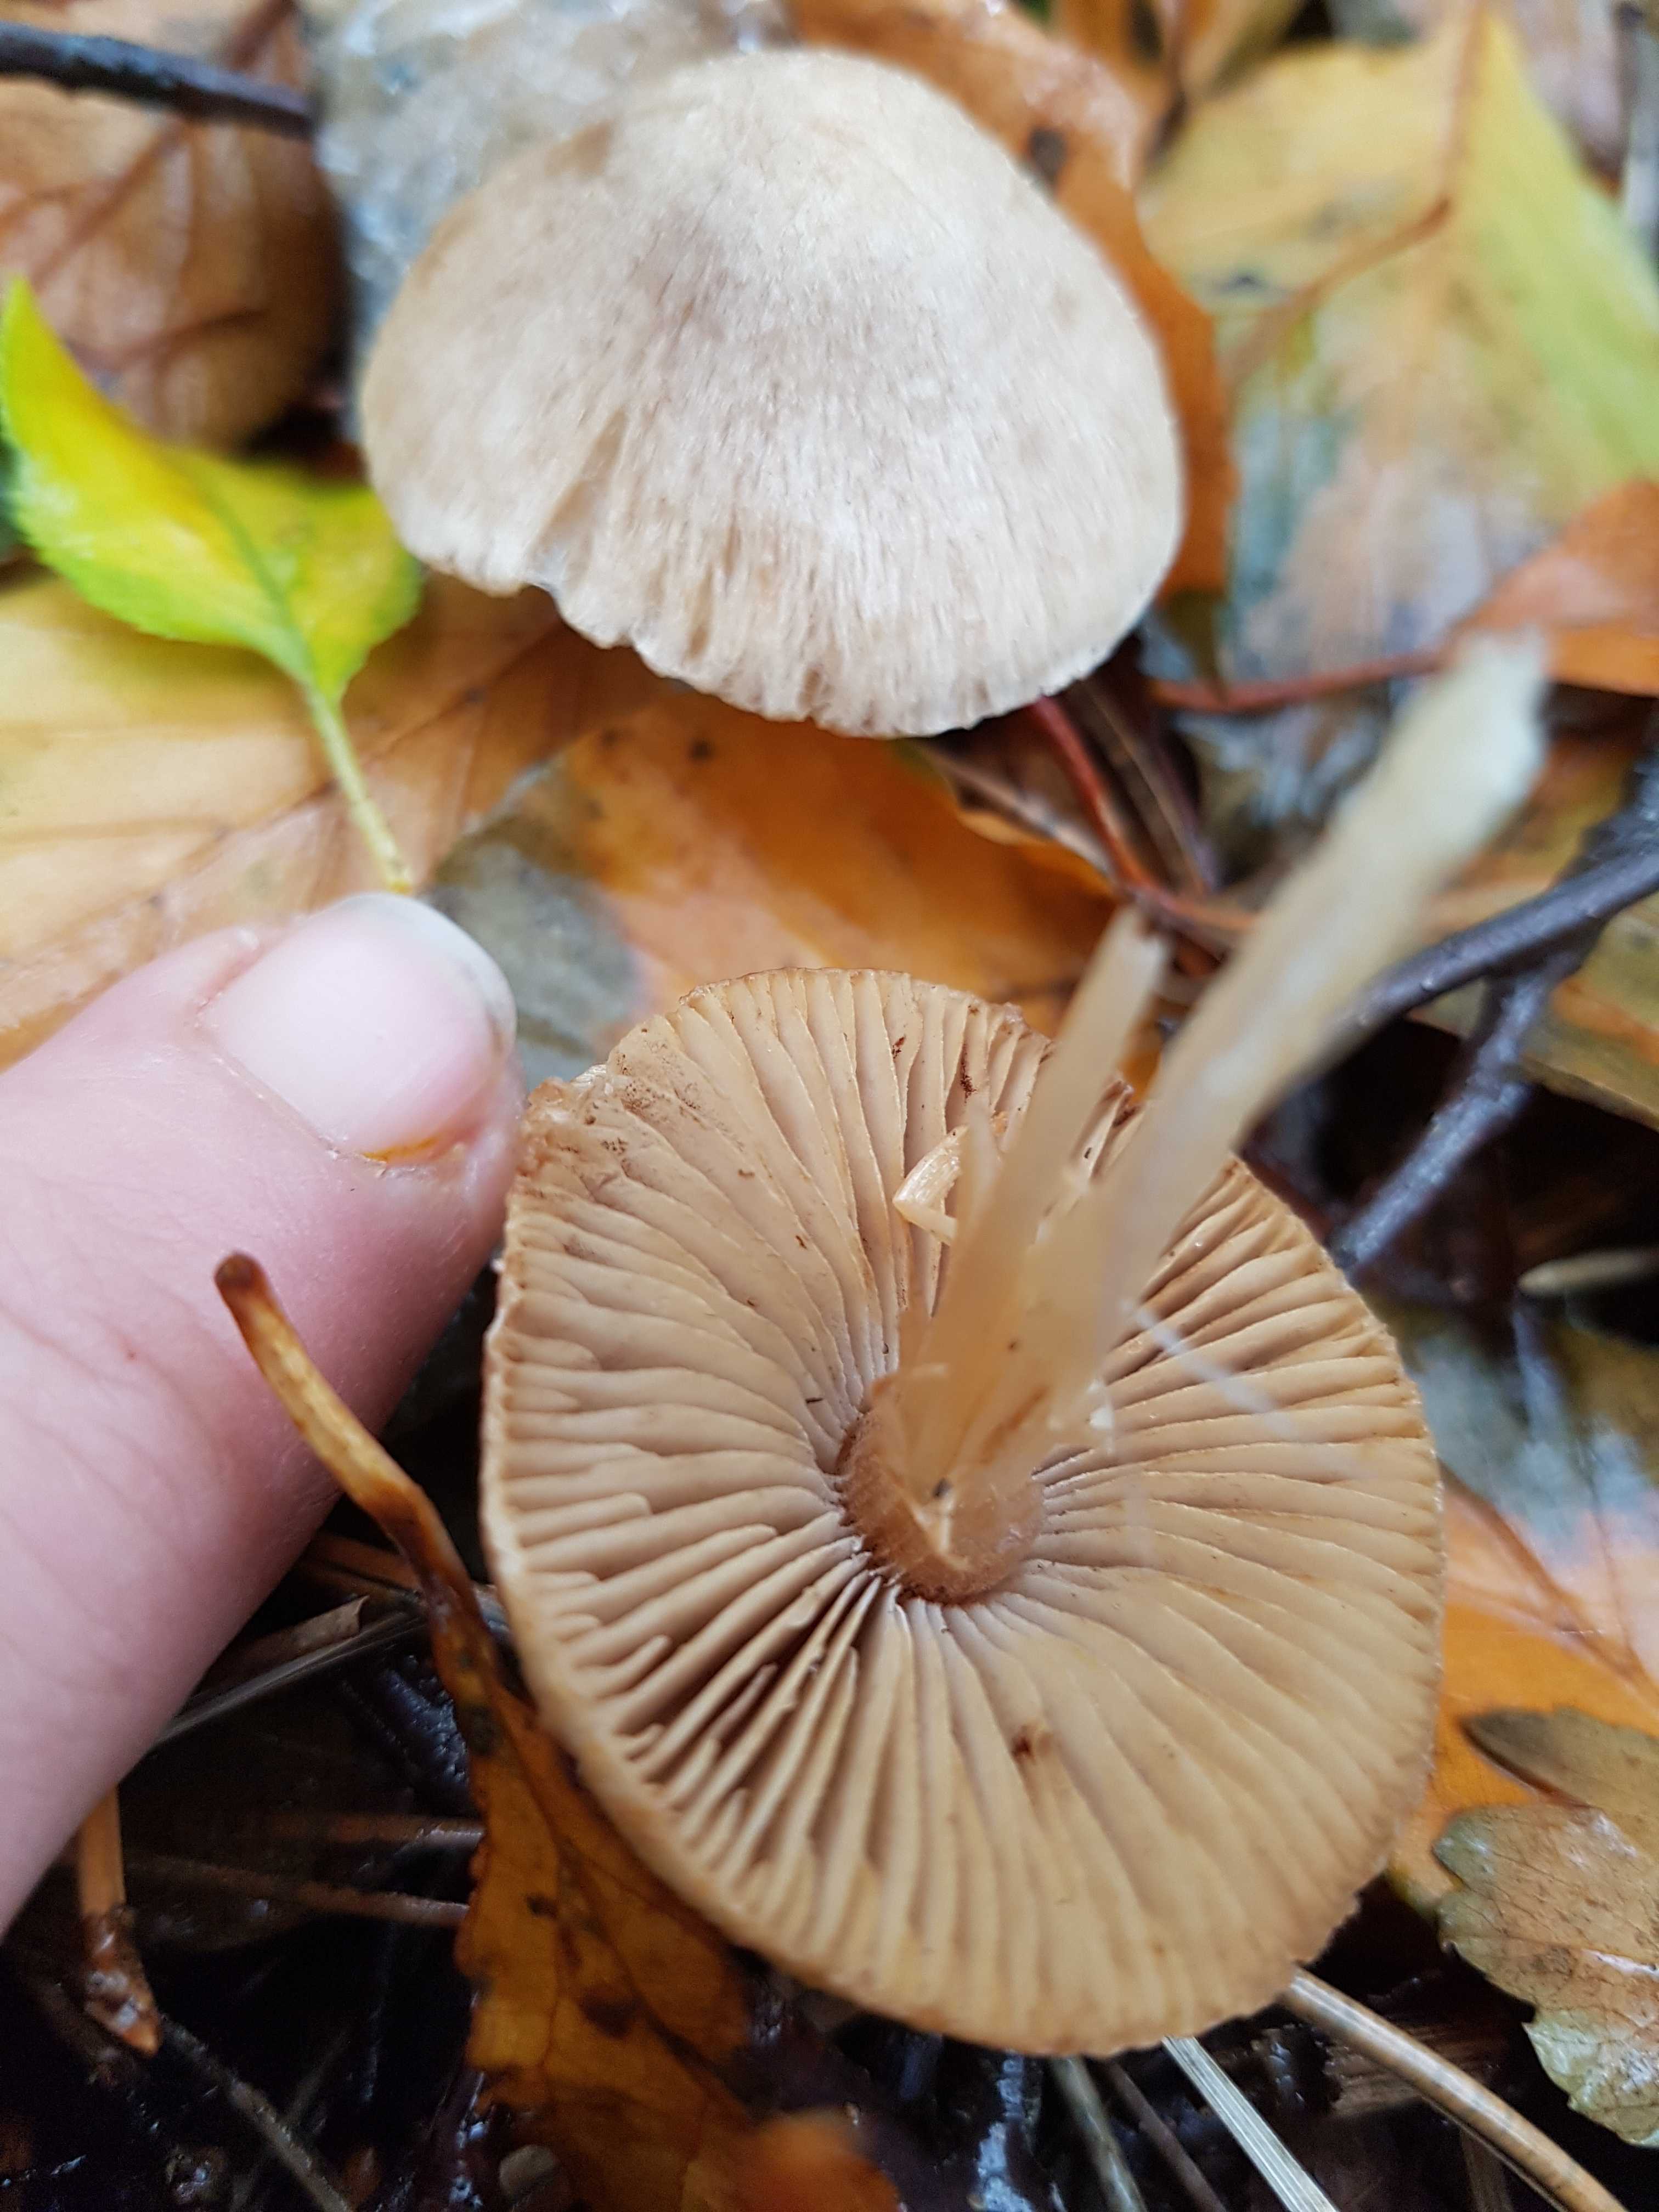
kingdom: Fungi
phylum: Basidiomycota
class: Agaricomycetes
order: Agaricales
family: Psathyrellaceae
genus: Psathyrella
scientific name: Psathyrella
